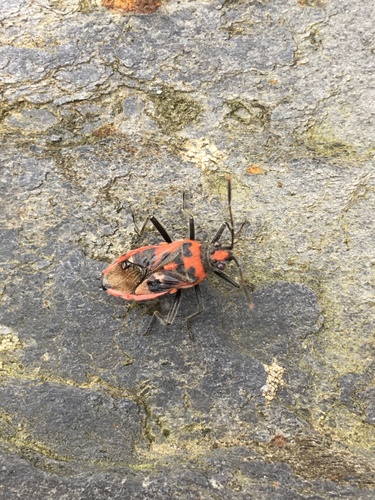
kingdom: Animalia
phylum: Arthropoda
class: Insecta
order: Hemiptera
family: Rhopalidae
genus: Corizus
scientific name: Corizus hyoscyami
